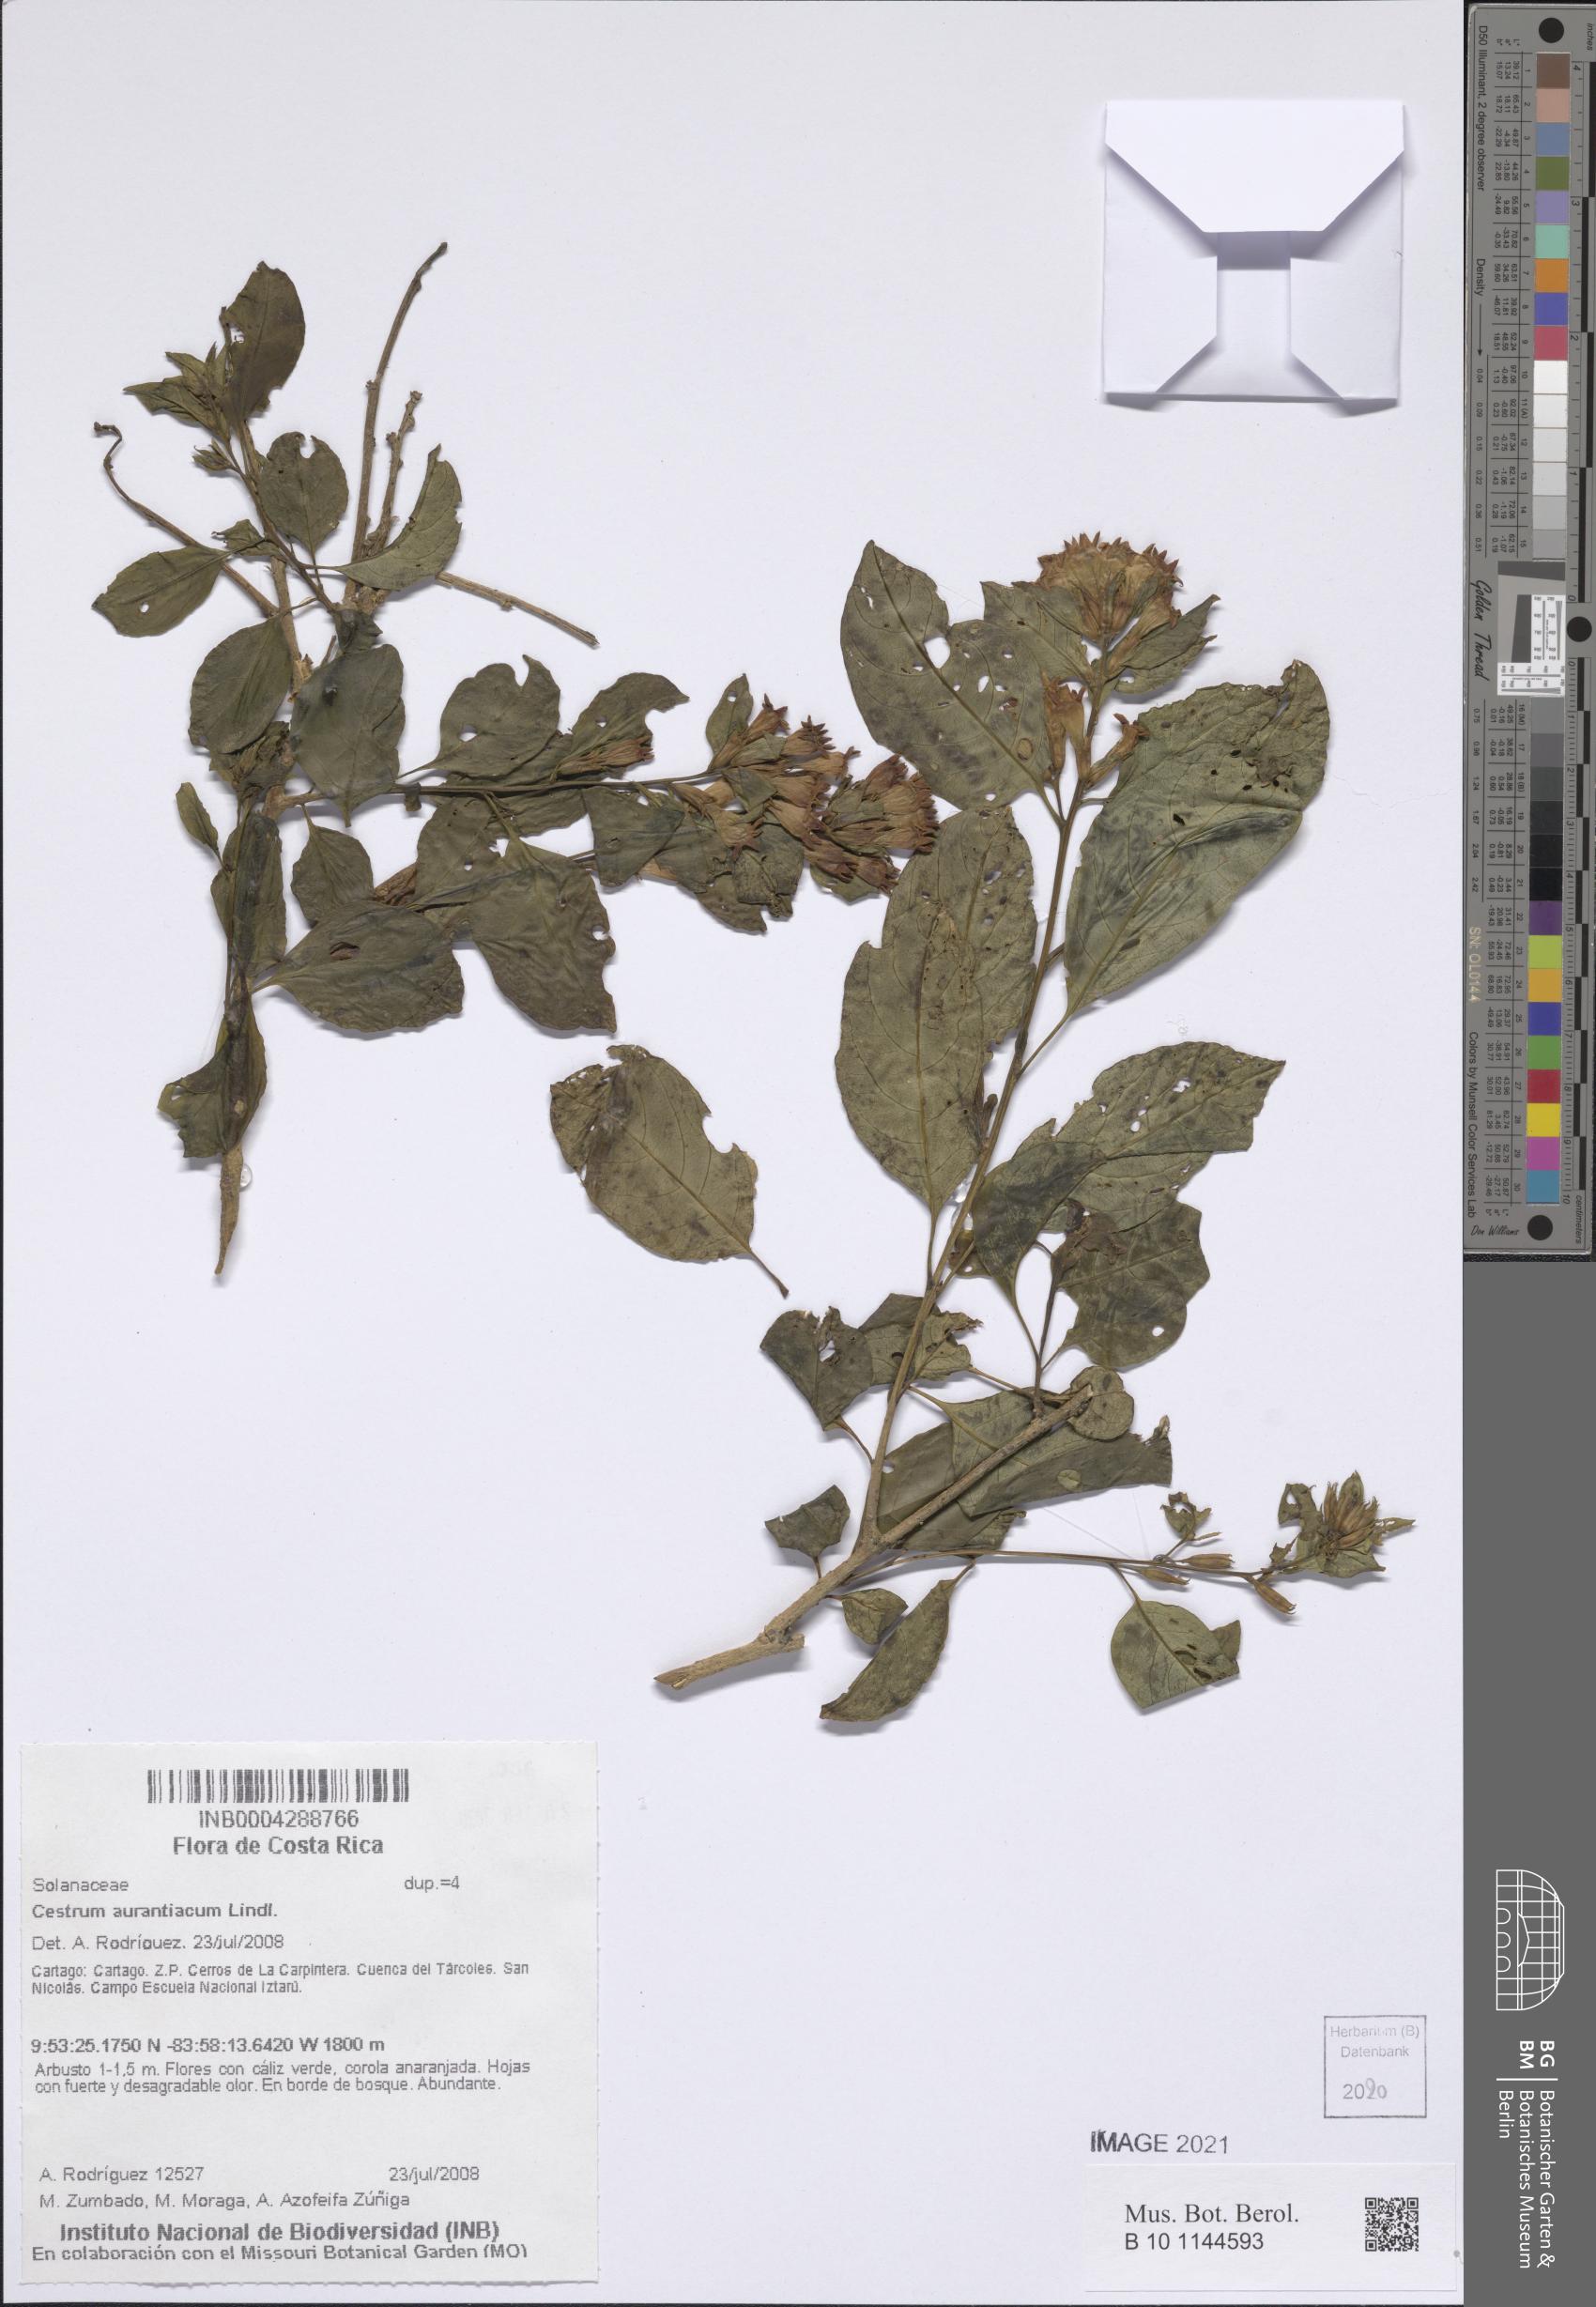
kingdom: Plantae
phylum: Tracheophyta
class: Magnoliopsida
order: Solanales
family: Solanaceae
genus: Cestrum
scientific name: Cestrum aurantiacum
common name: Orange cestrum
